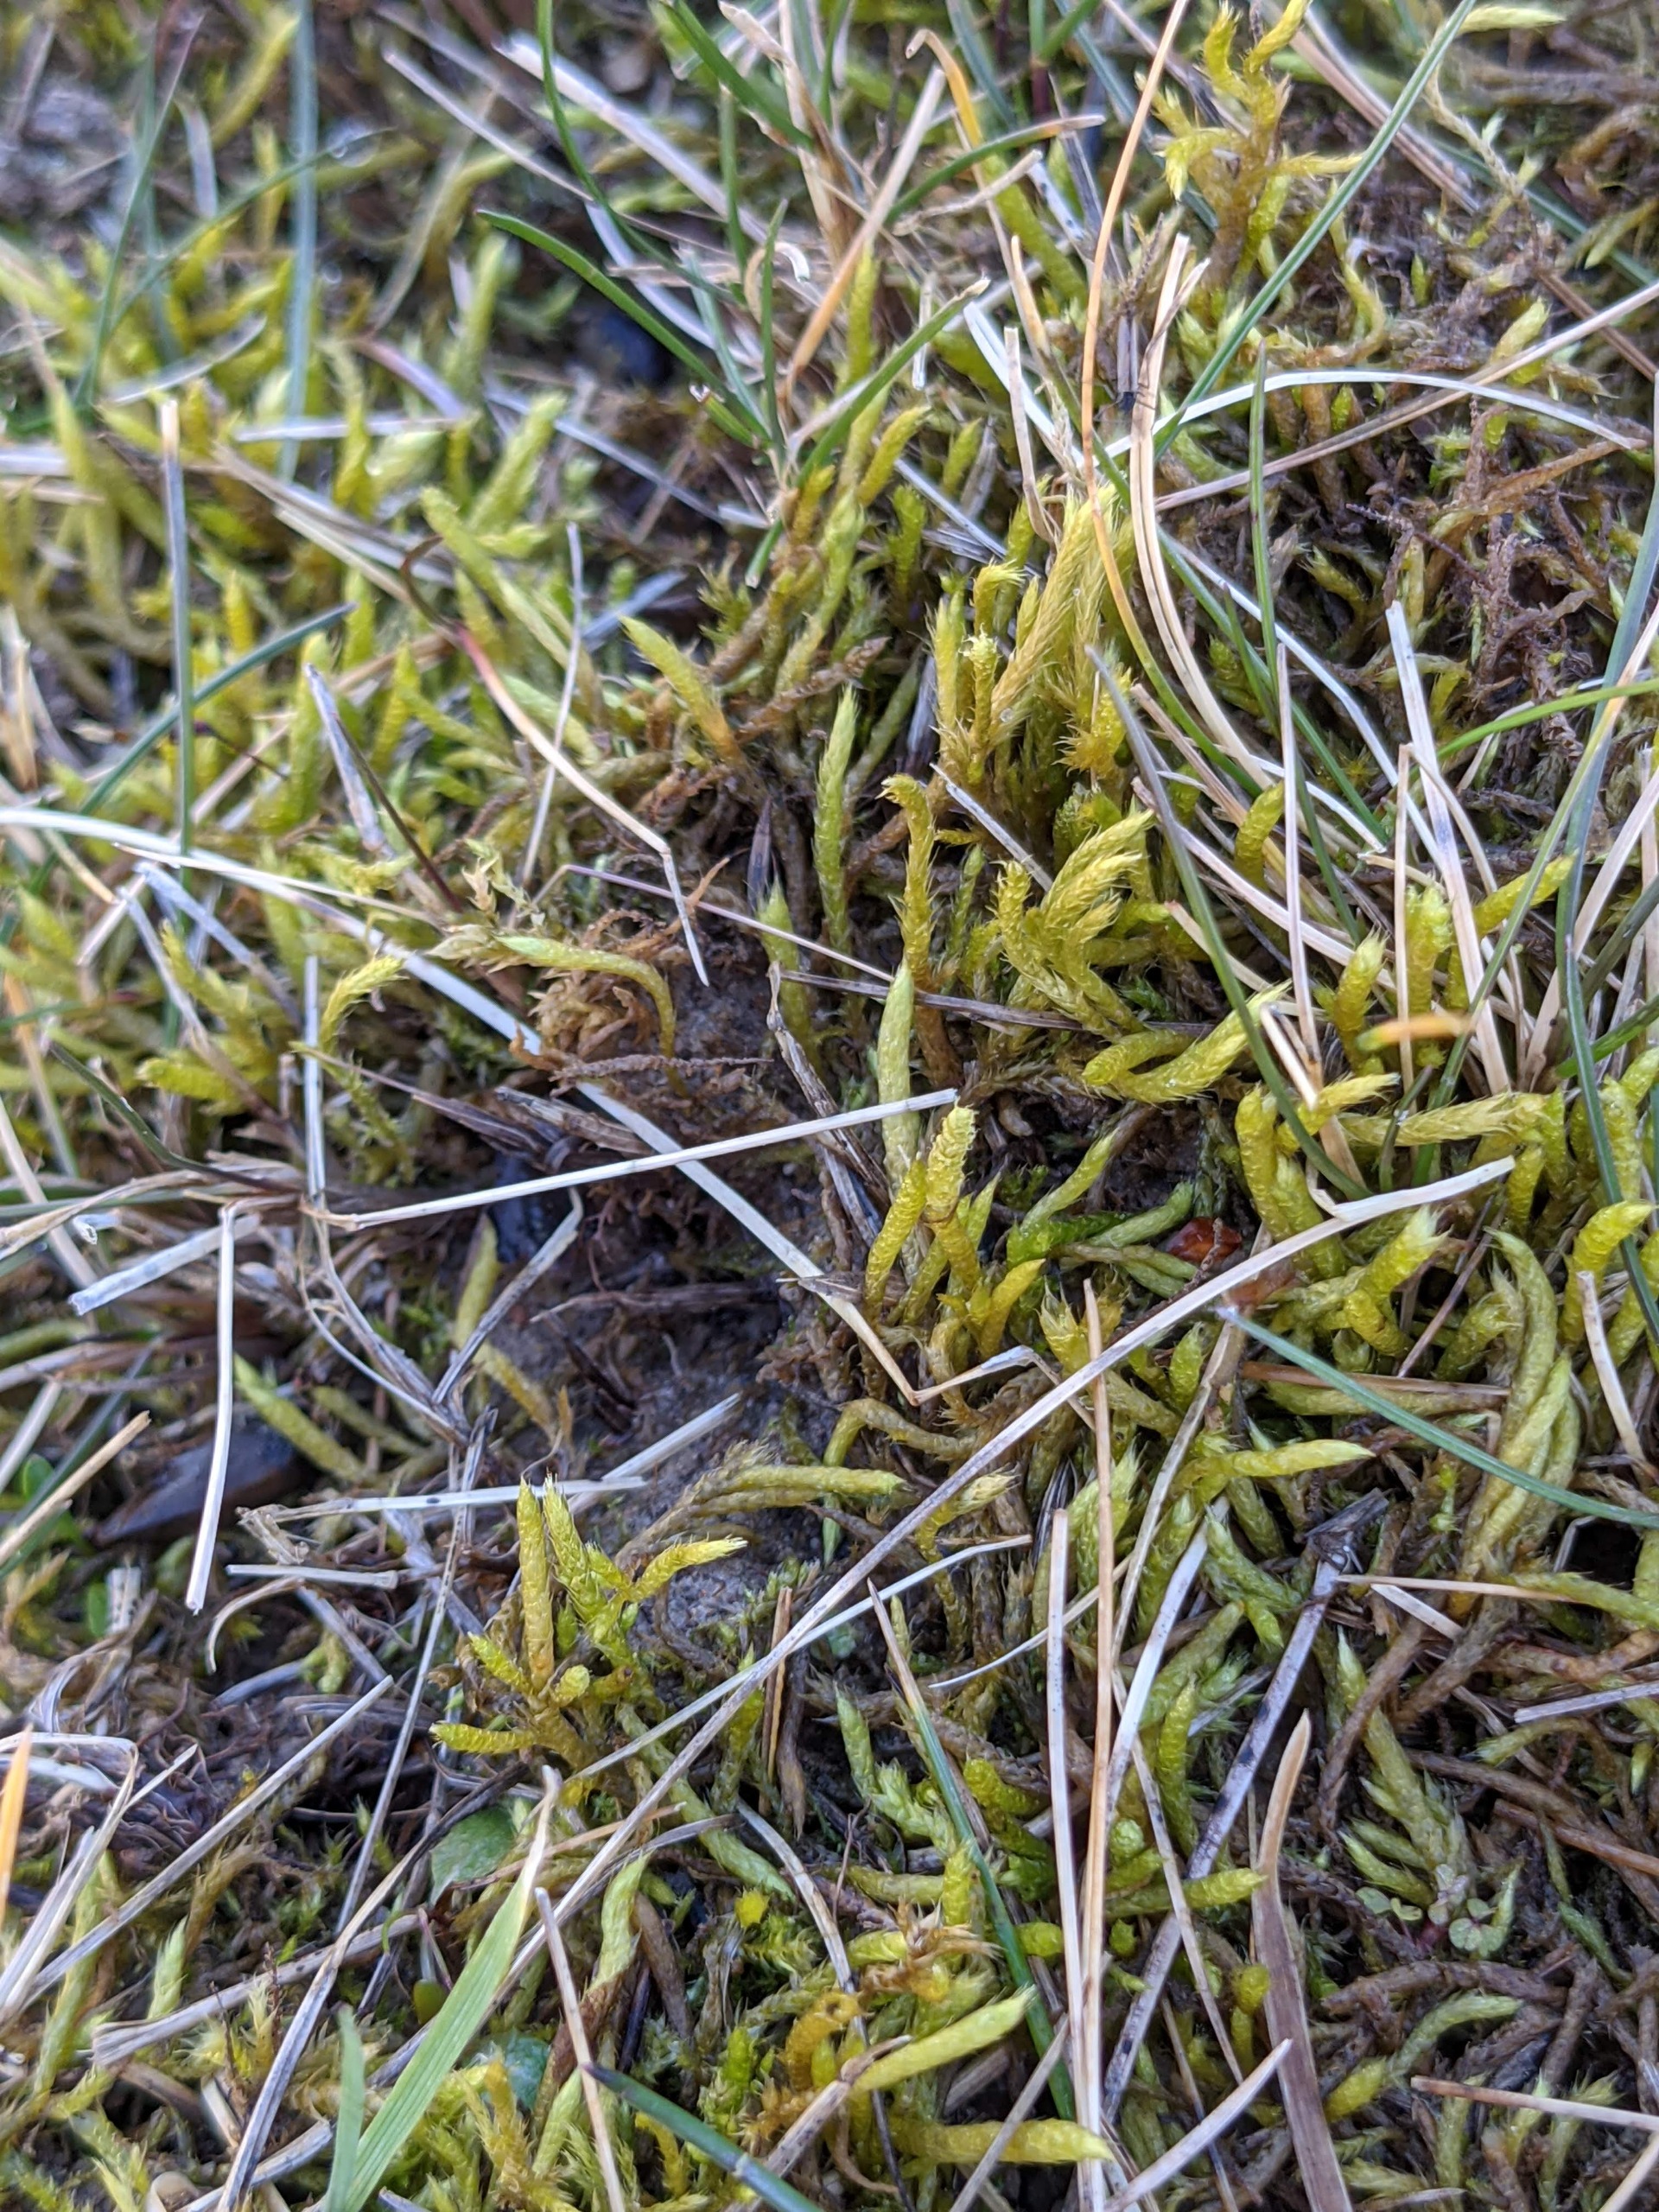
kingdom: Plantae
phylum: Bryophyta
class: Bryopsida
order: Hypnales
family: Brachytheciaceae
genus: Brachythecium
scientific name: Brachythecium albicans
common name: Hvidlig kortkapsel
